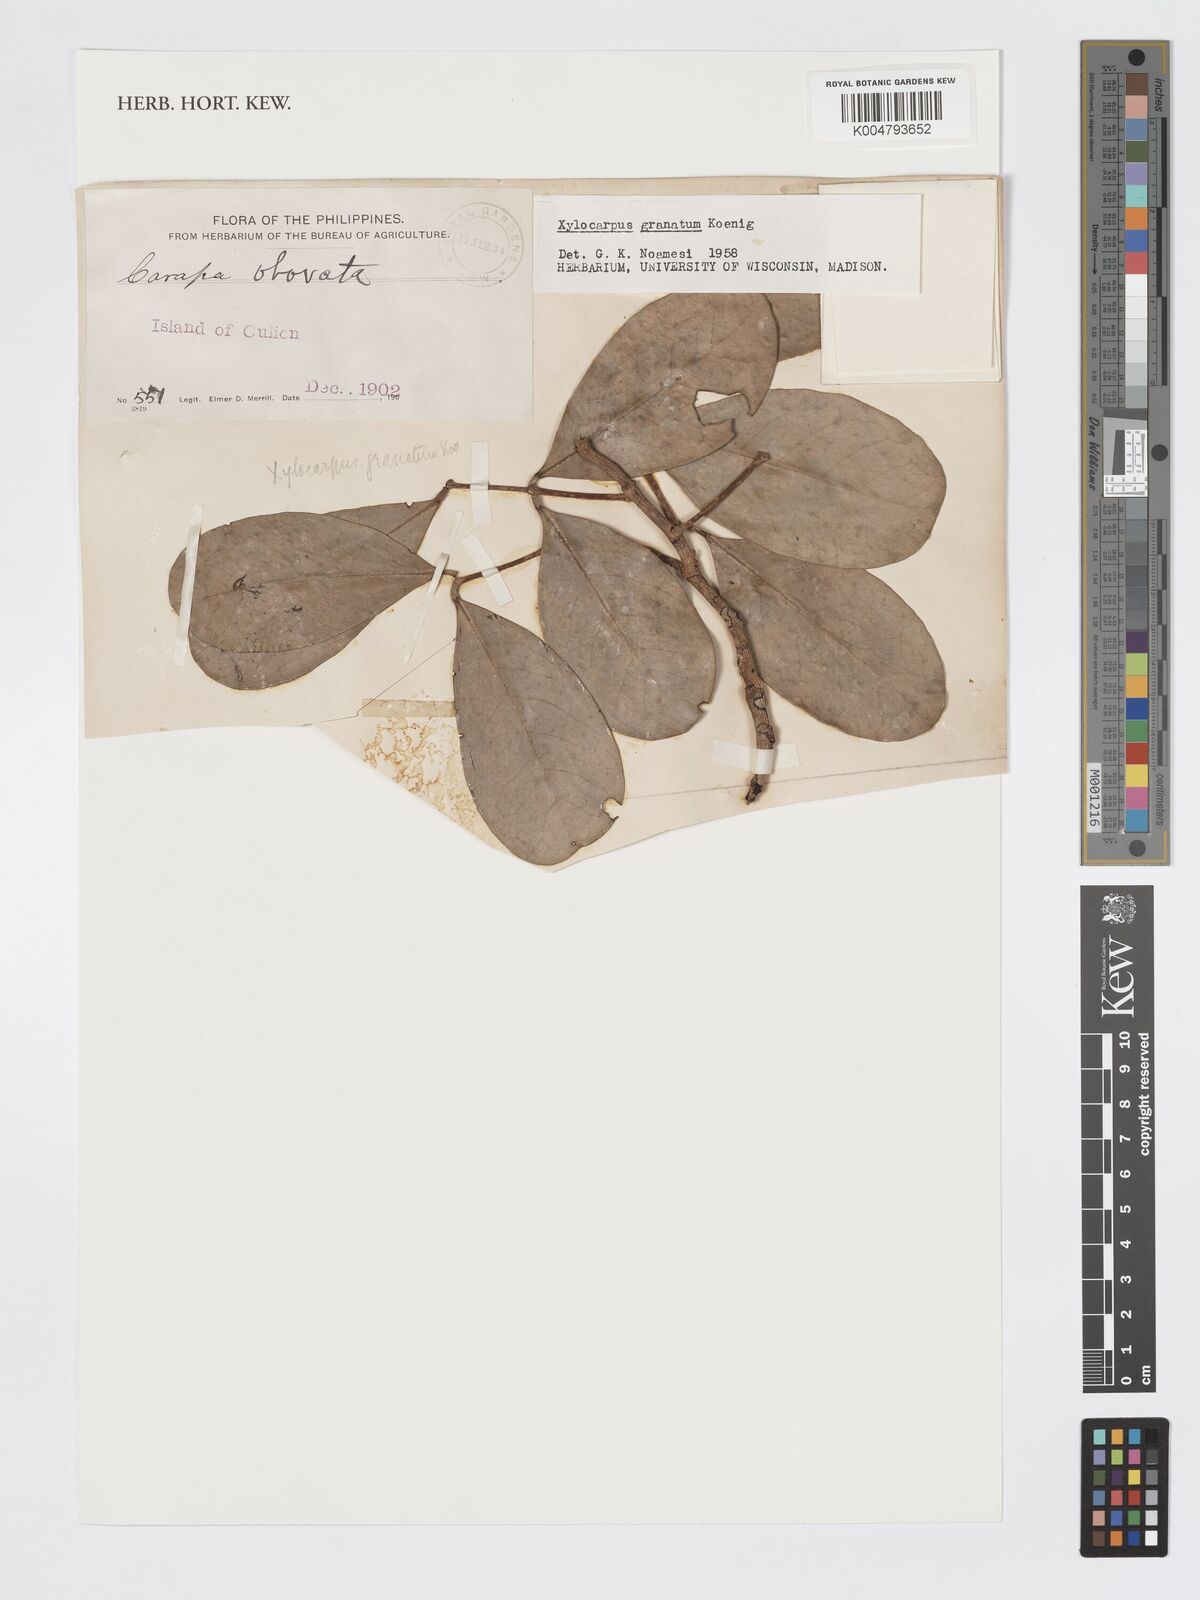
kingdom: Plantae
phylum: Tracheophyta
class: Magnoliopsida
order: Sapindales
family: Meliaceae
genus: Xylocarpus
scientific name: Xylocarpus granatum
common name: Apple mangrove
